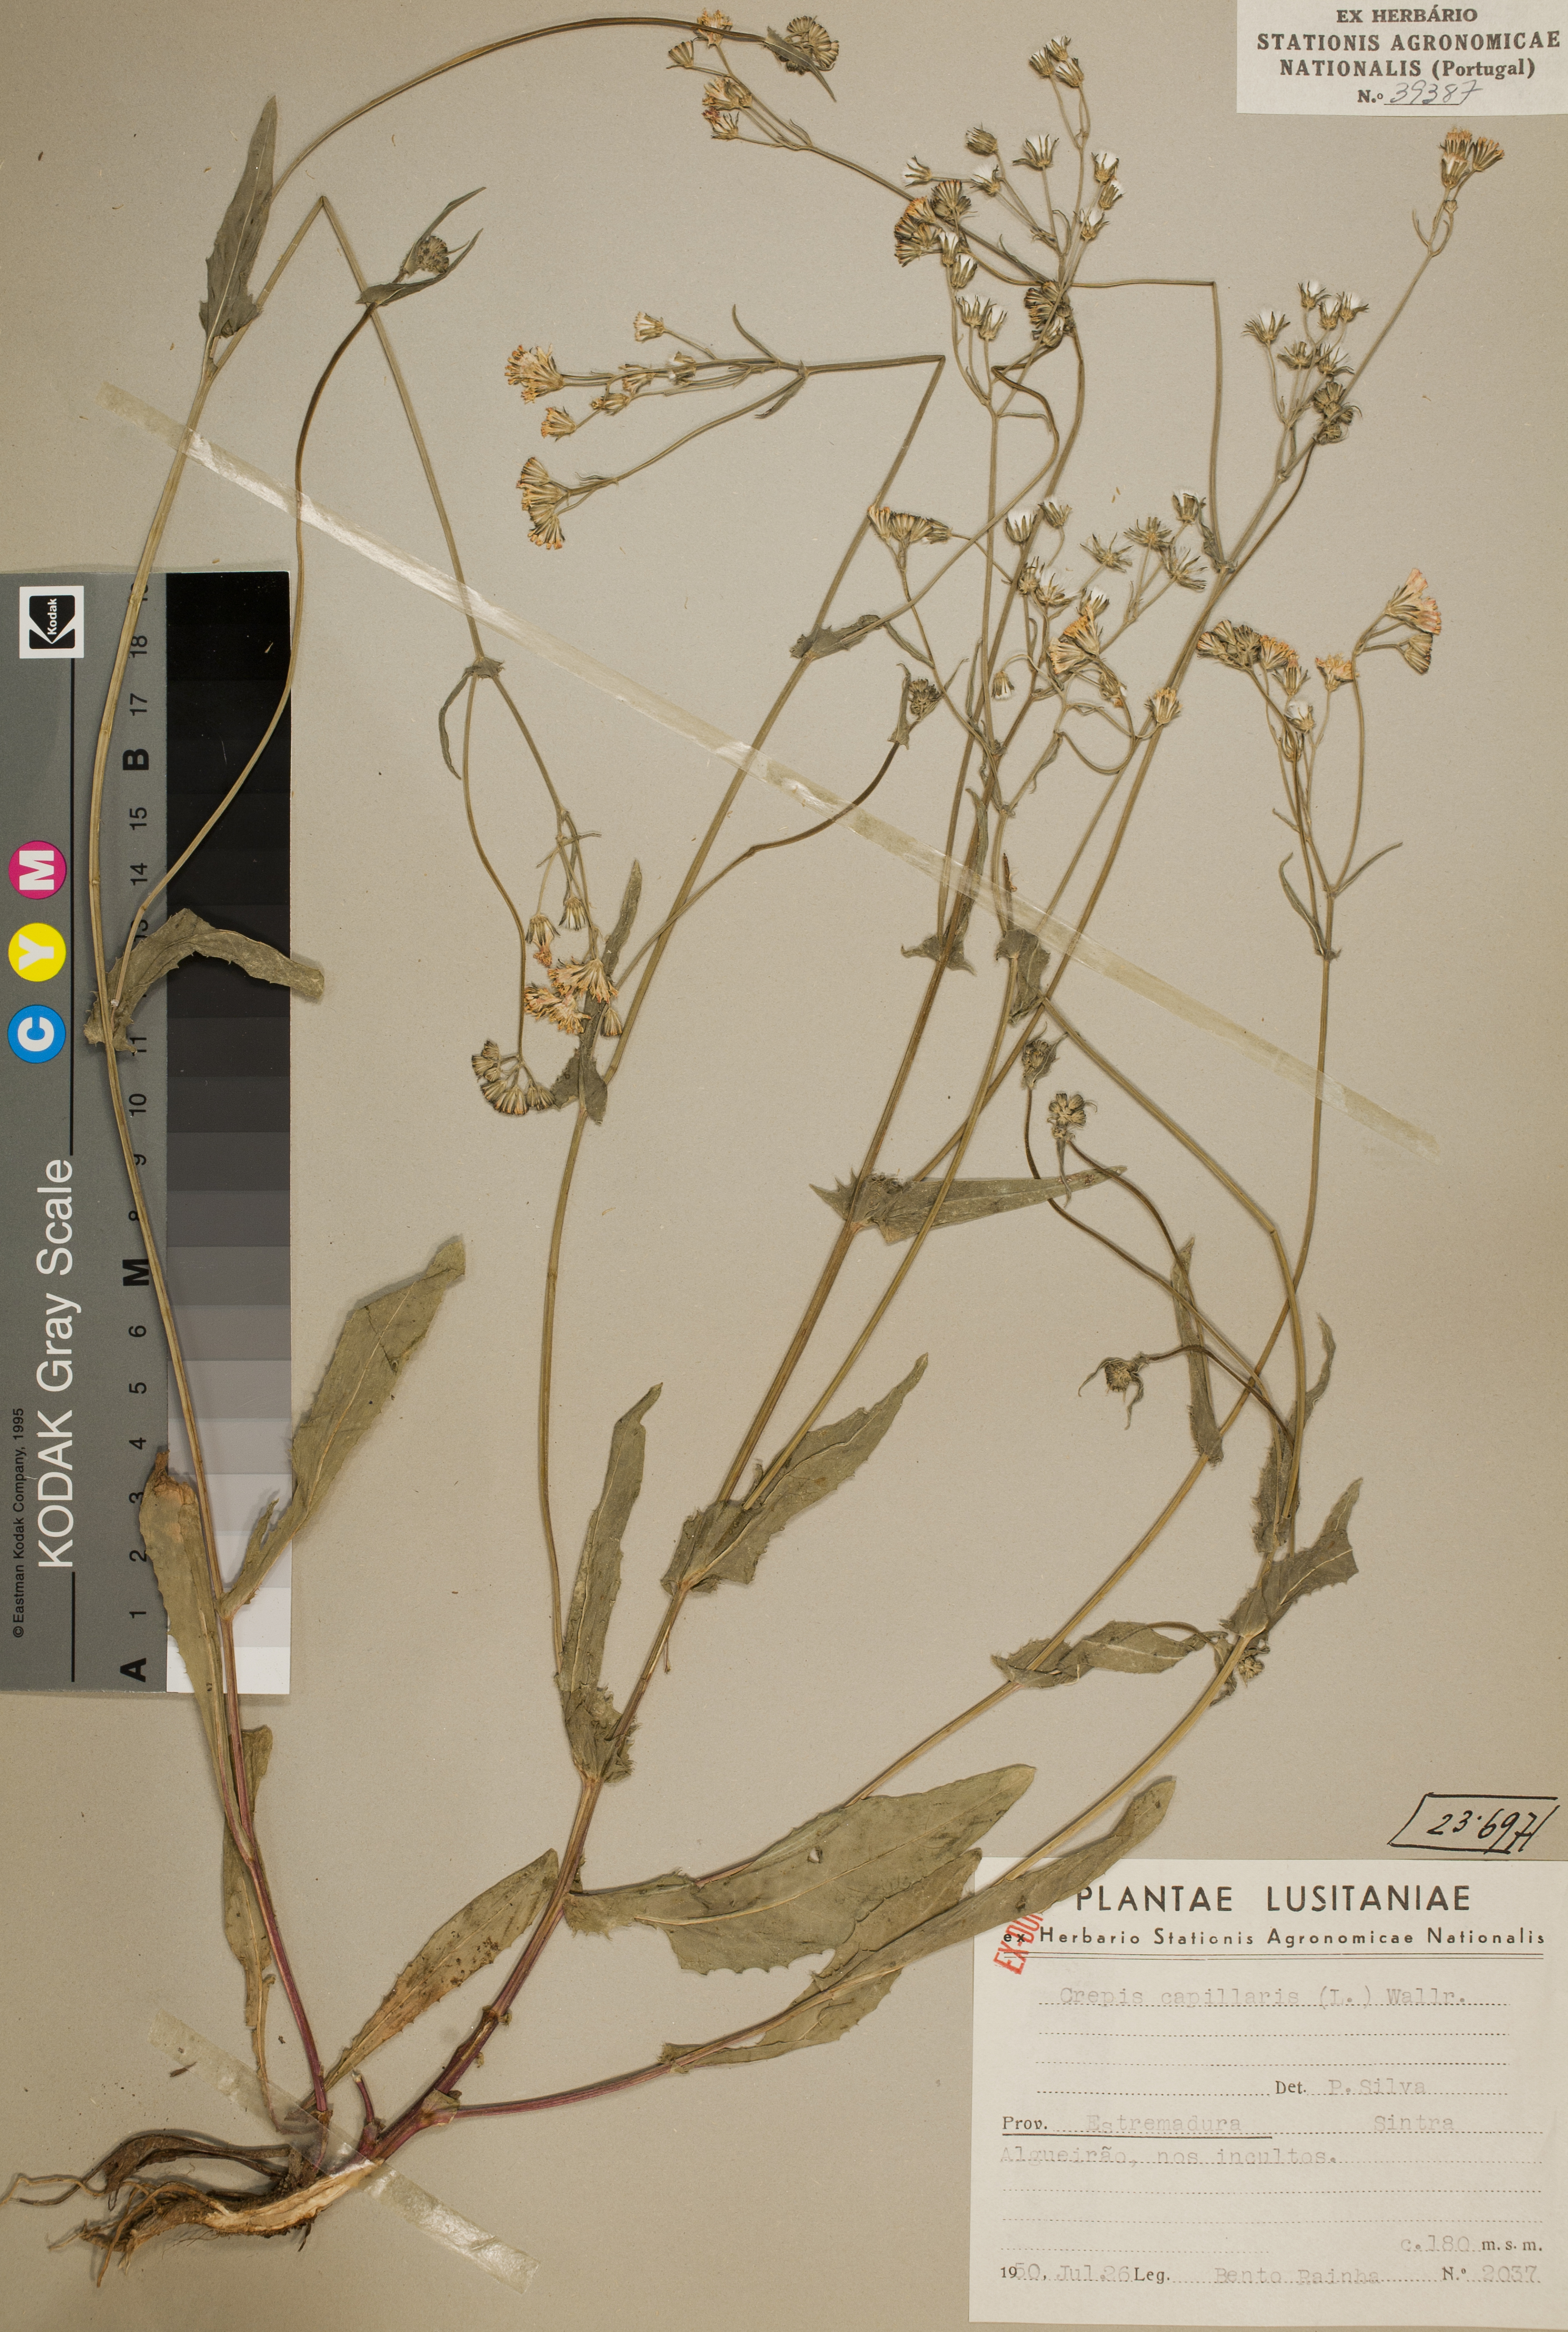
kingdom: Plantae
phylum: Tracheophyta
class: Magnoliopsida
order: Asterales
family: Asteraceae
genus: Crepis
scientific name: Crepis capillaris
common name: Smooth hawksbeard
